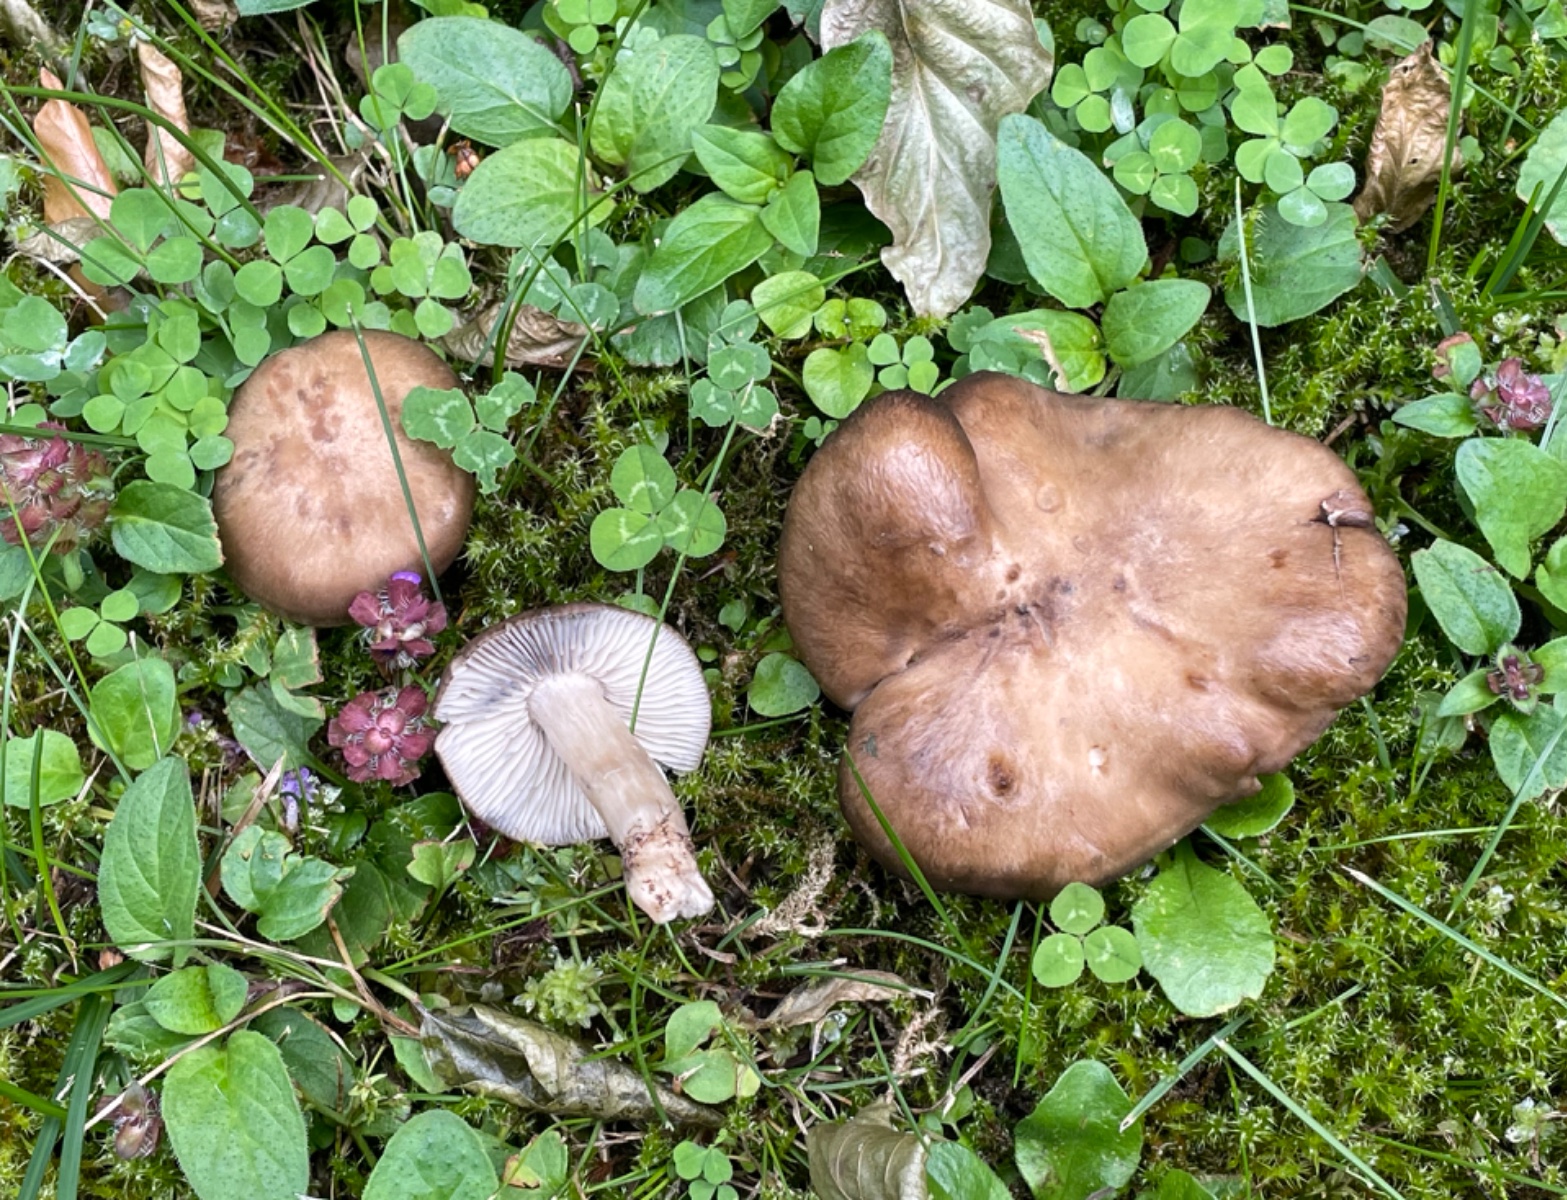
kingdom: Fungi
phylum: Basidiomycota
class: Agaricomycetes
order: Agaricales
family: Lyophyllaceae
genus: Lyophyllum
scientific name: Lyophyllum paelochroum
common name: blånende gråblad
